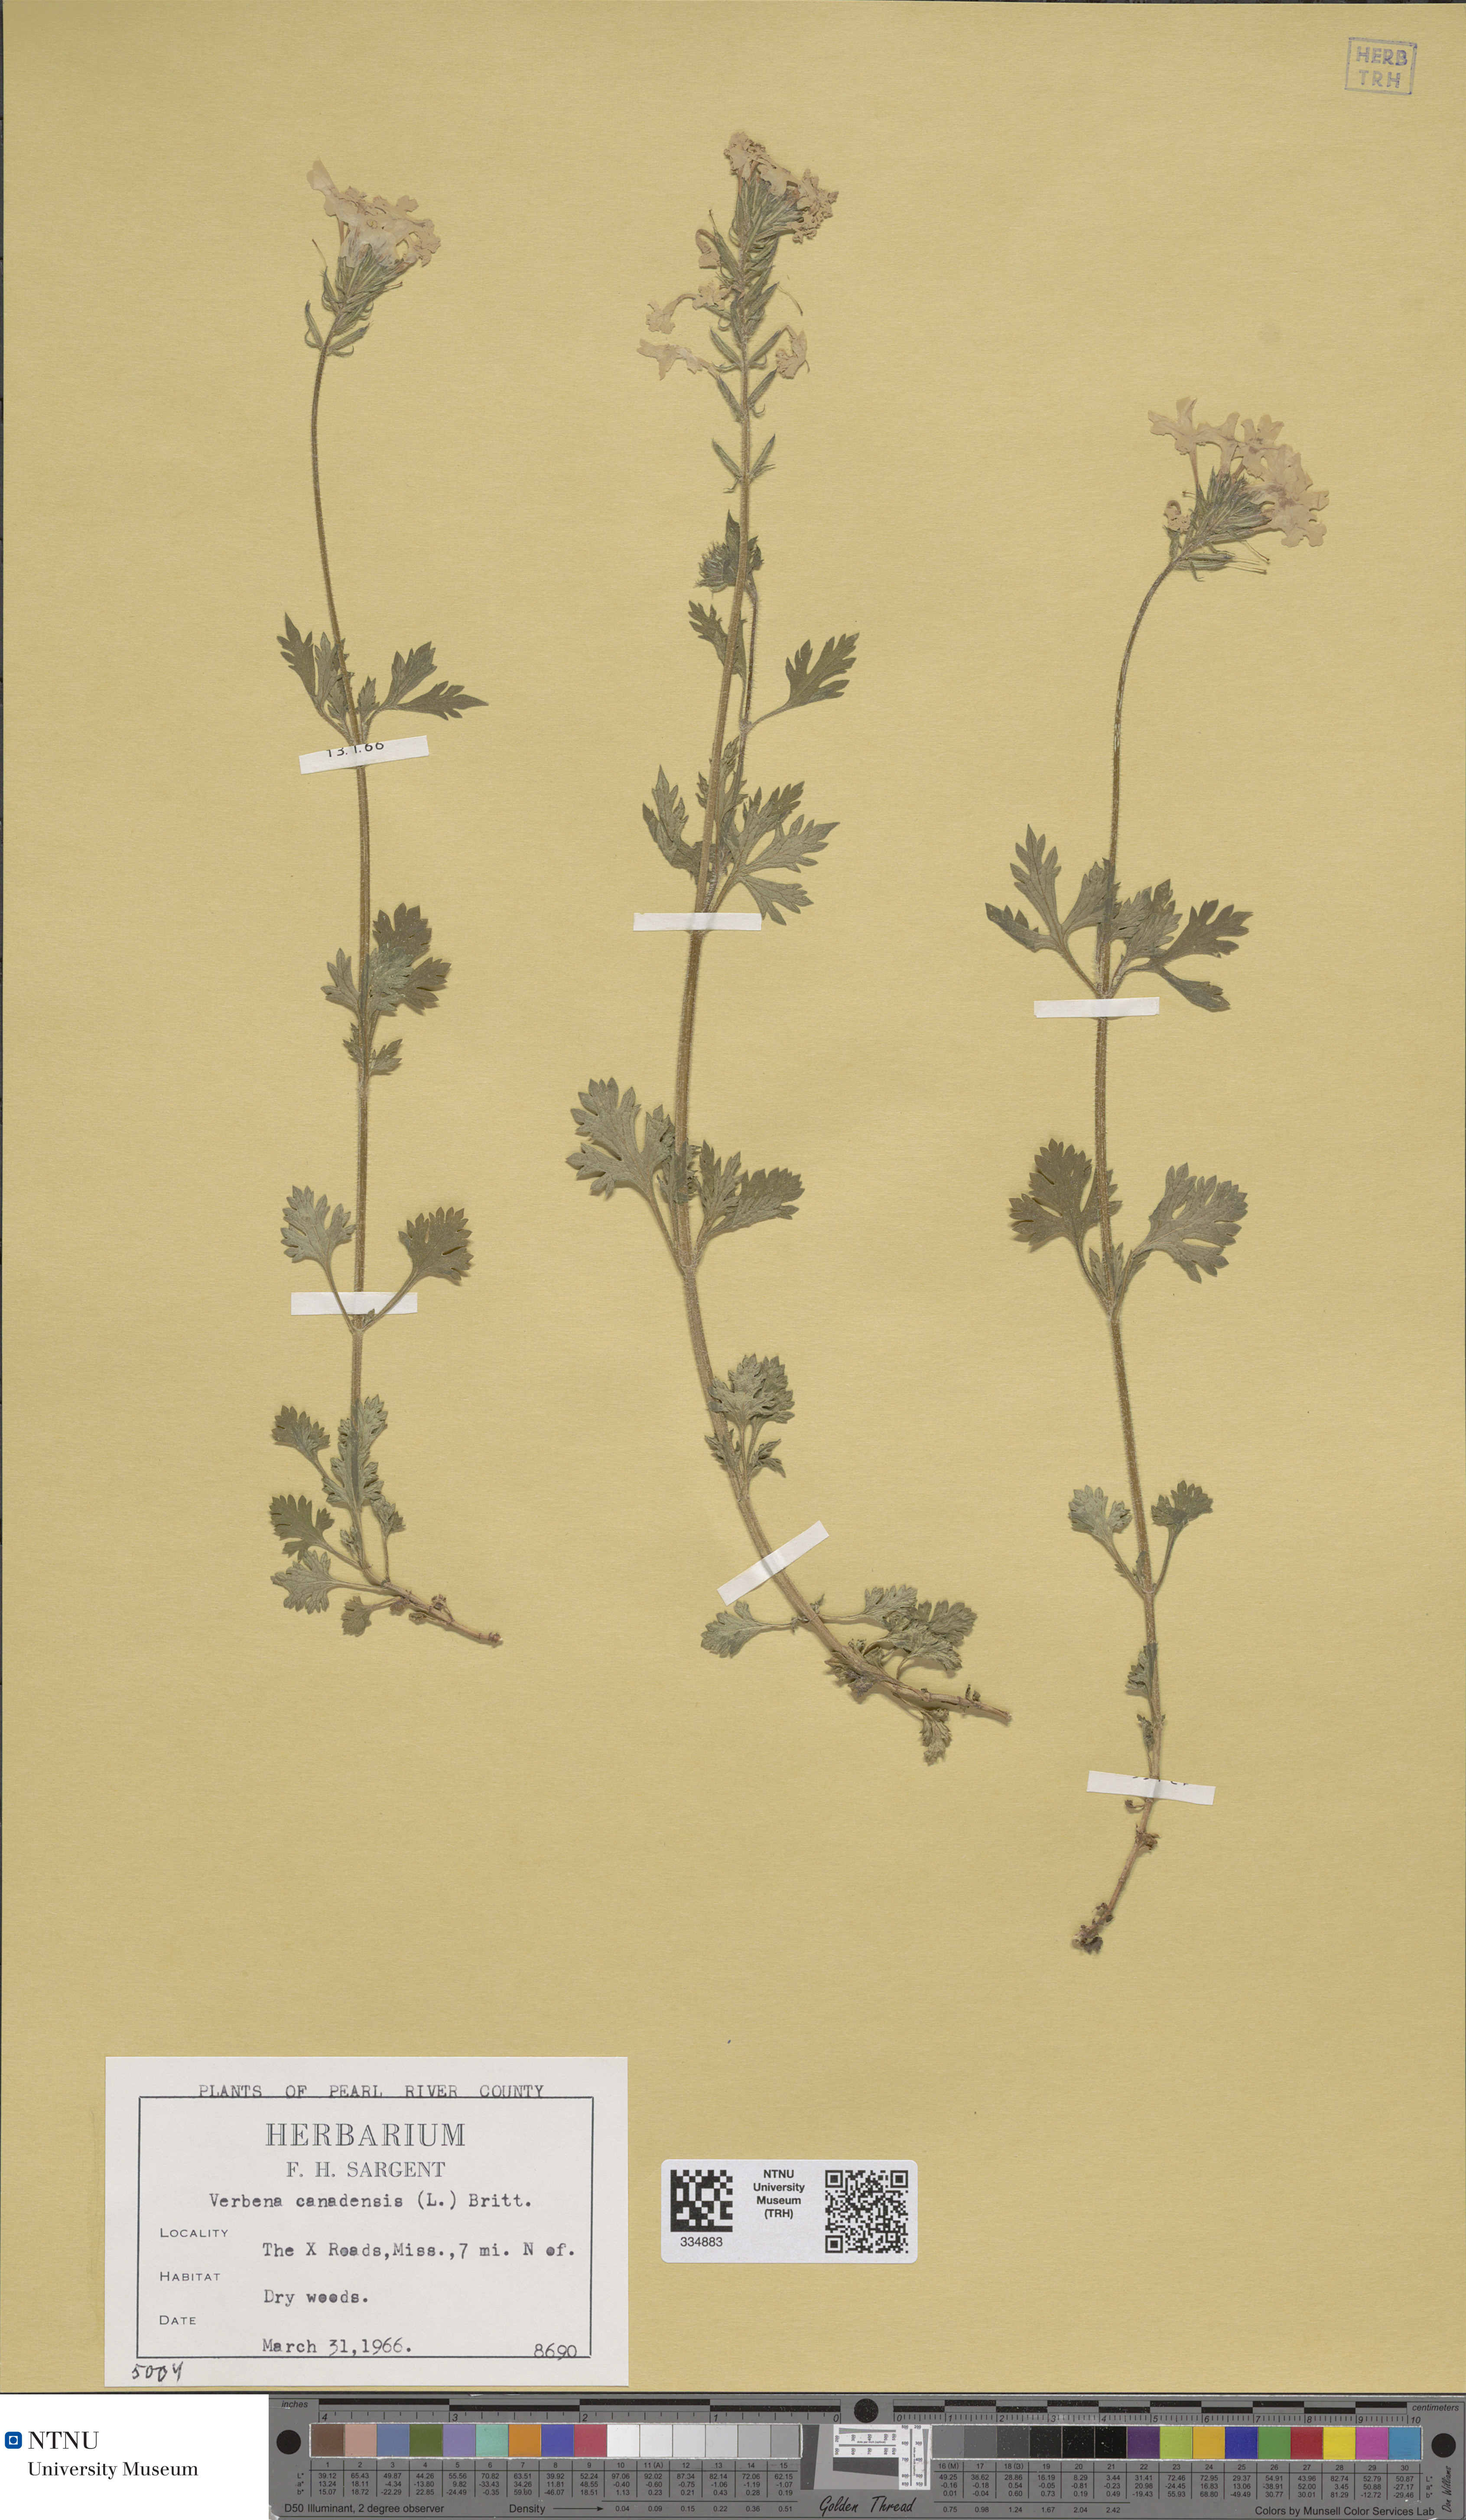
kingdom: Plantae
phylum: Tracheophyta
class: Magnoliopsida
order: Lamiales
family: Verbenaceae
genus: Verbena
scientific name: Verbena canadensis
